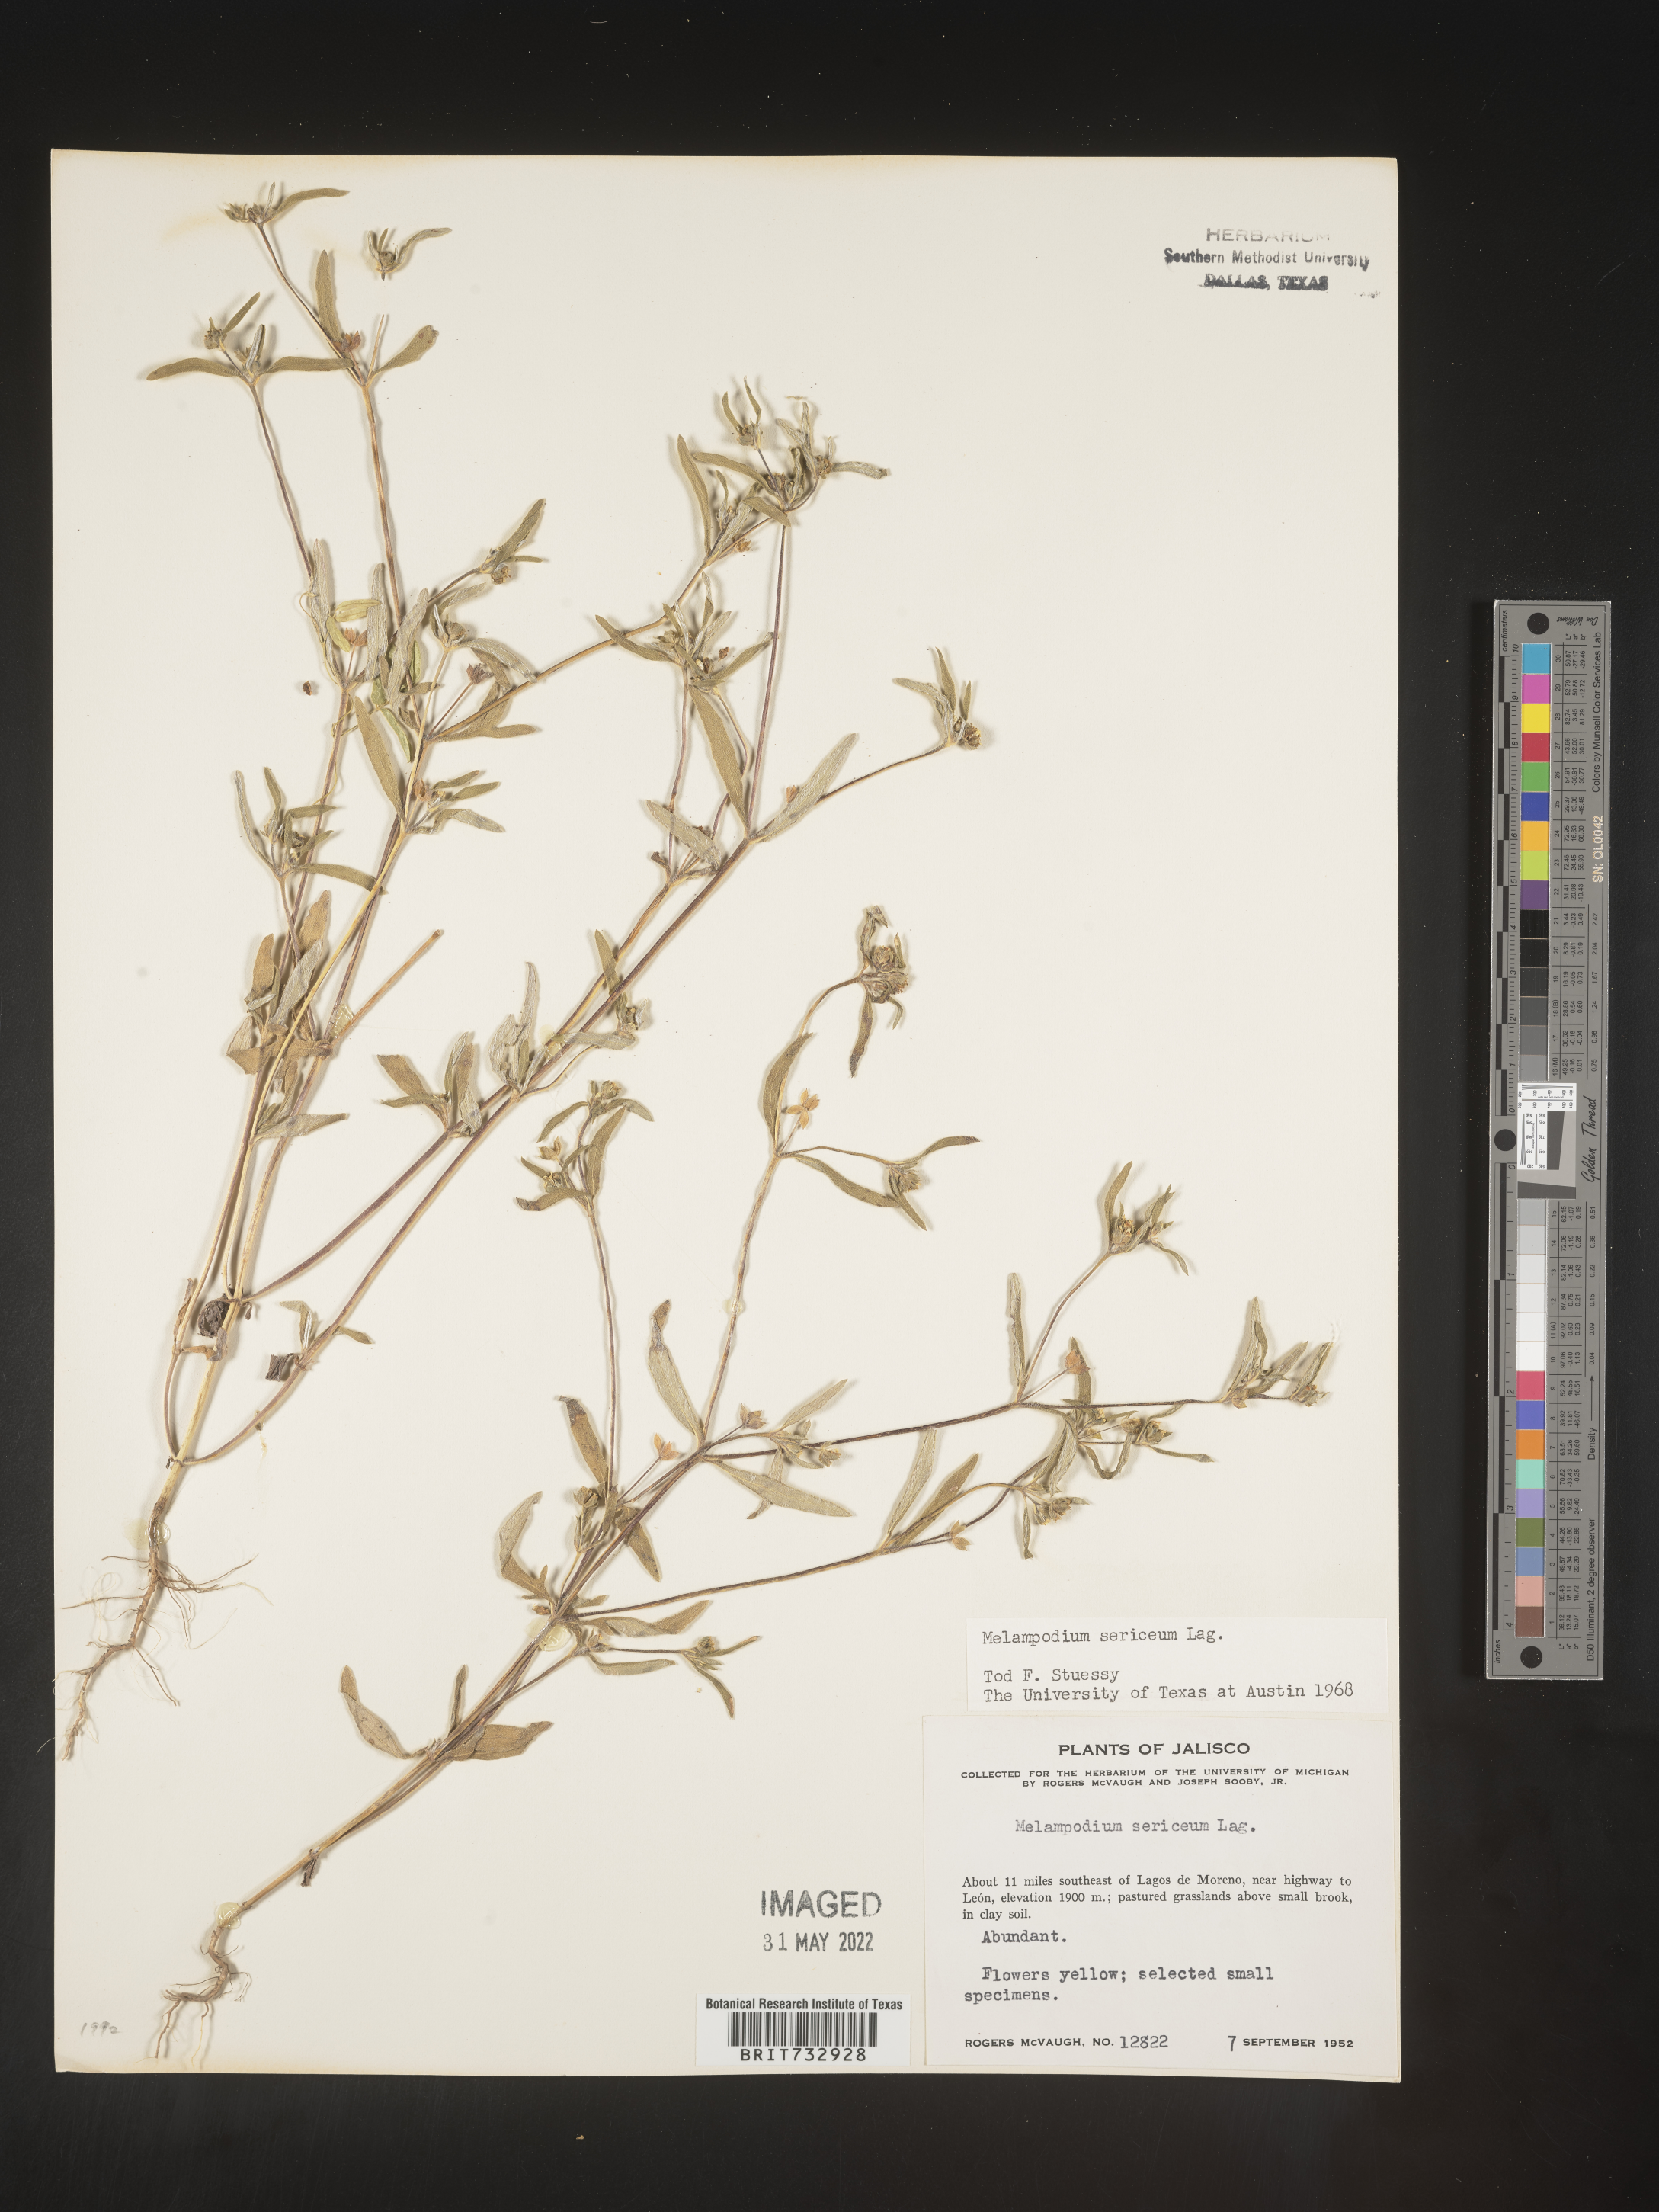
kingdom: Plantae
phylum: Tracheophyta
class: Magnoliopsida
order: Asterales
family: Asteraceae
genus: Melampodium
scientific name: Melampodium
